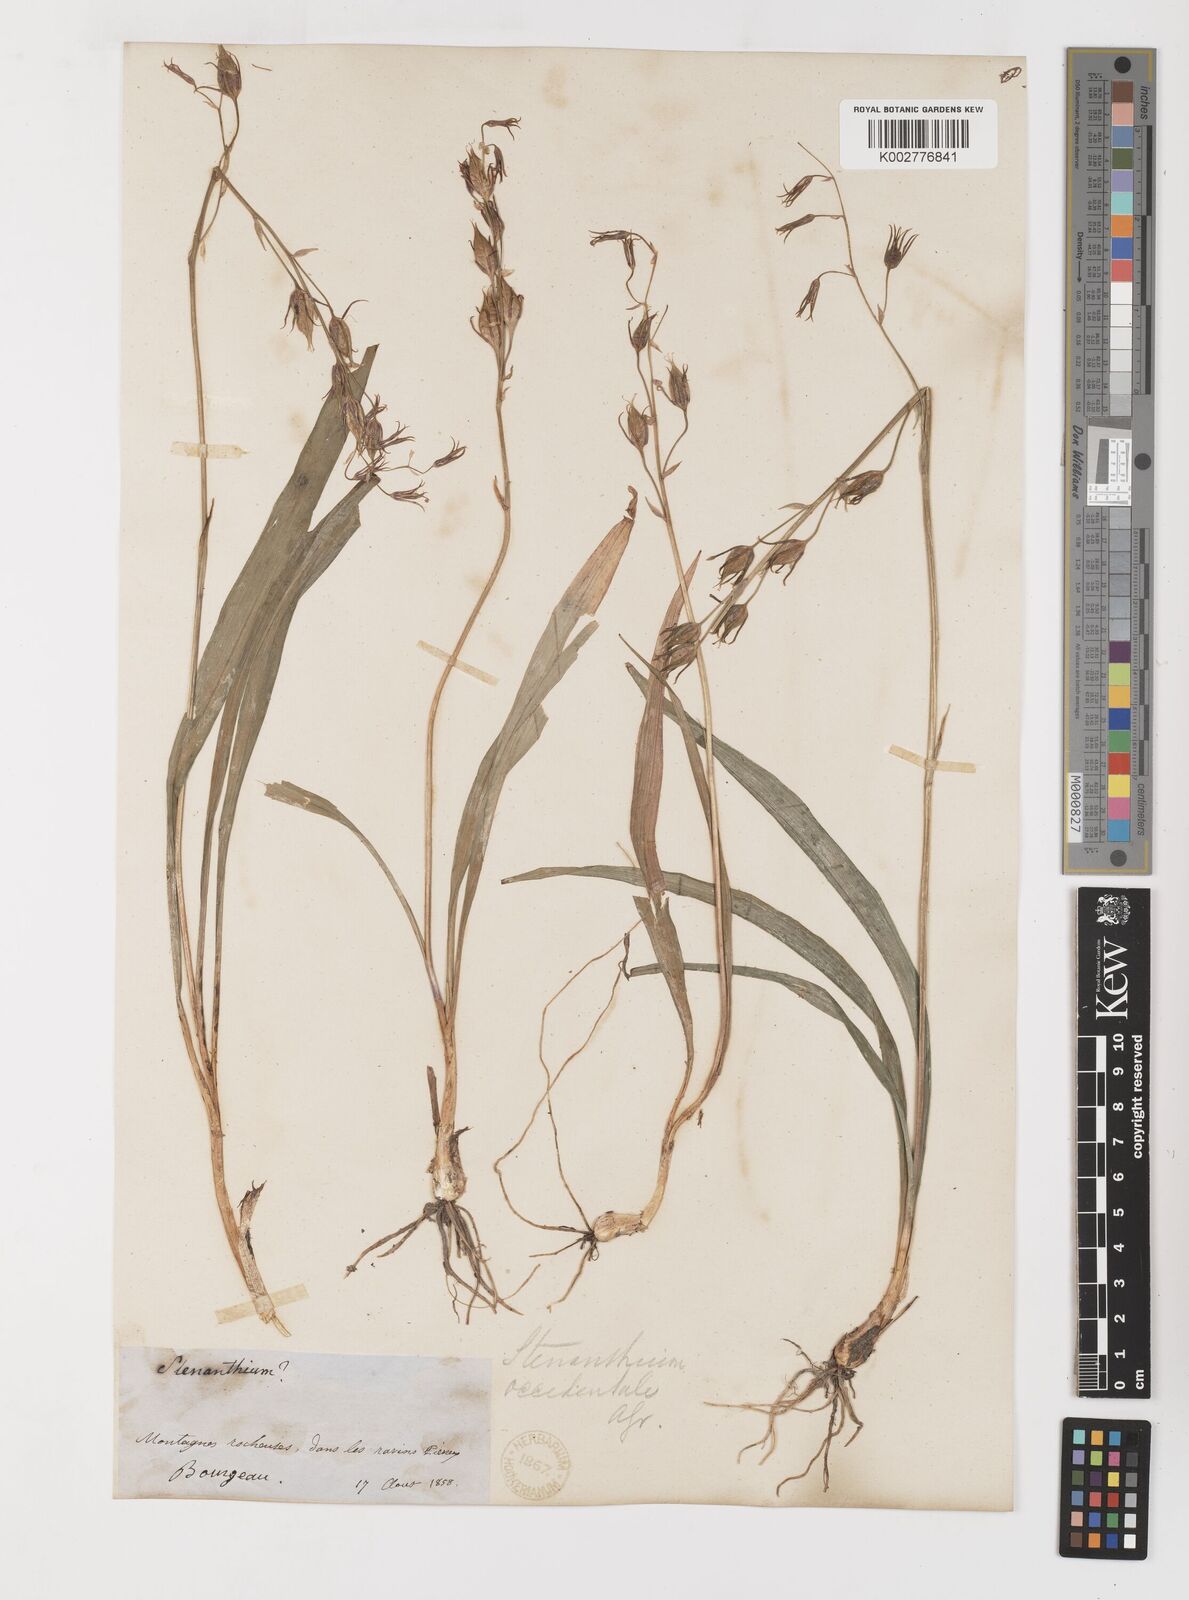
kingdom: Plantae
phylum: Tracheophyta
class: Liliopsida
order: Liliales
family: Melanthiaceae
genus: Anticlea
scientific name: Anticlea occidentalis
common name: Bronze-bells
